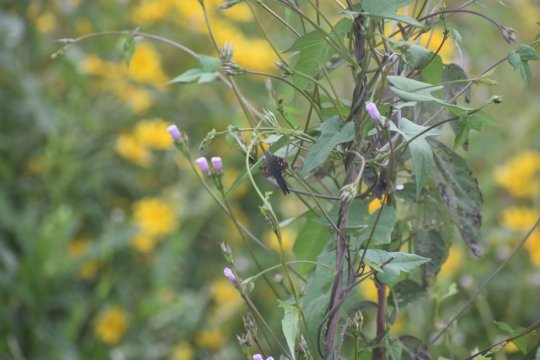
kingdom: Animalia
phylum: Arthropoda
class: Insecta
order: Lepidoptera
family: Hesperiidae
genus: Urbanus
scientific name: Urbanus proteus
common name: Long-tailed Skipper
